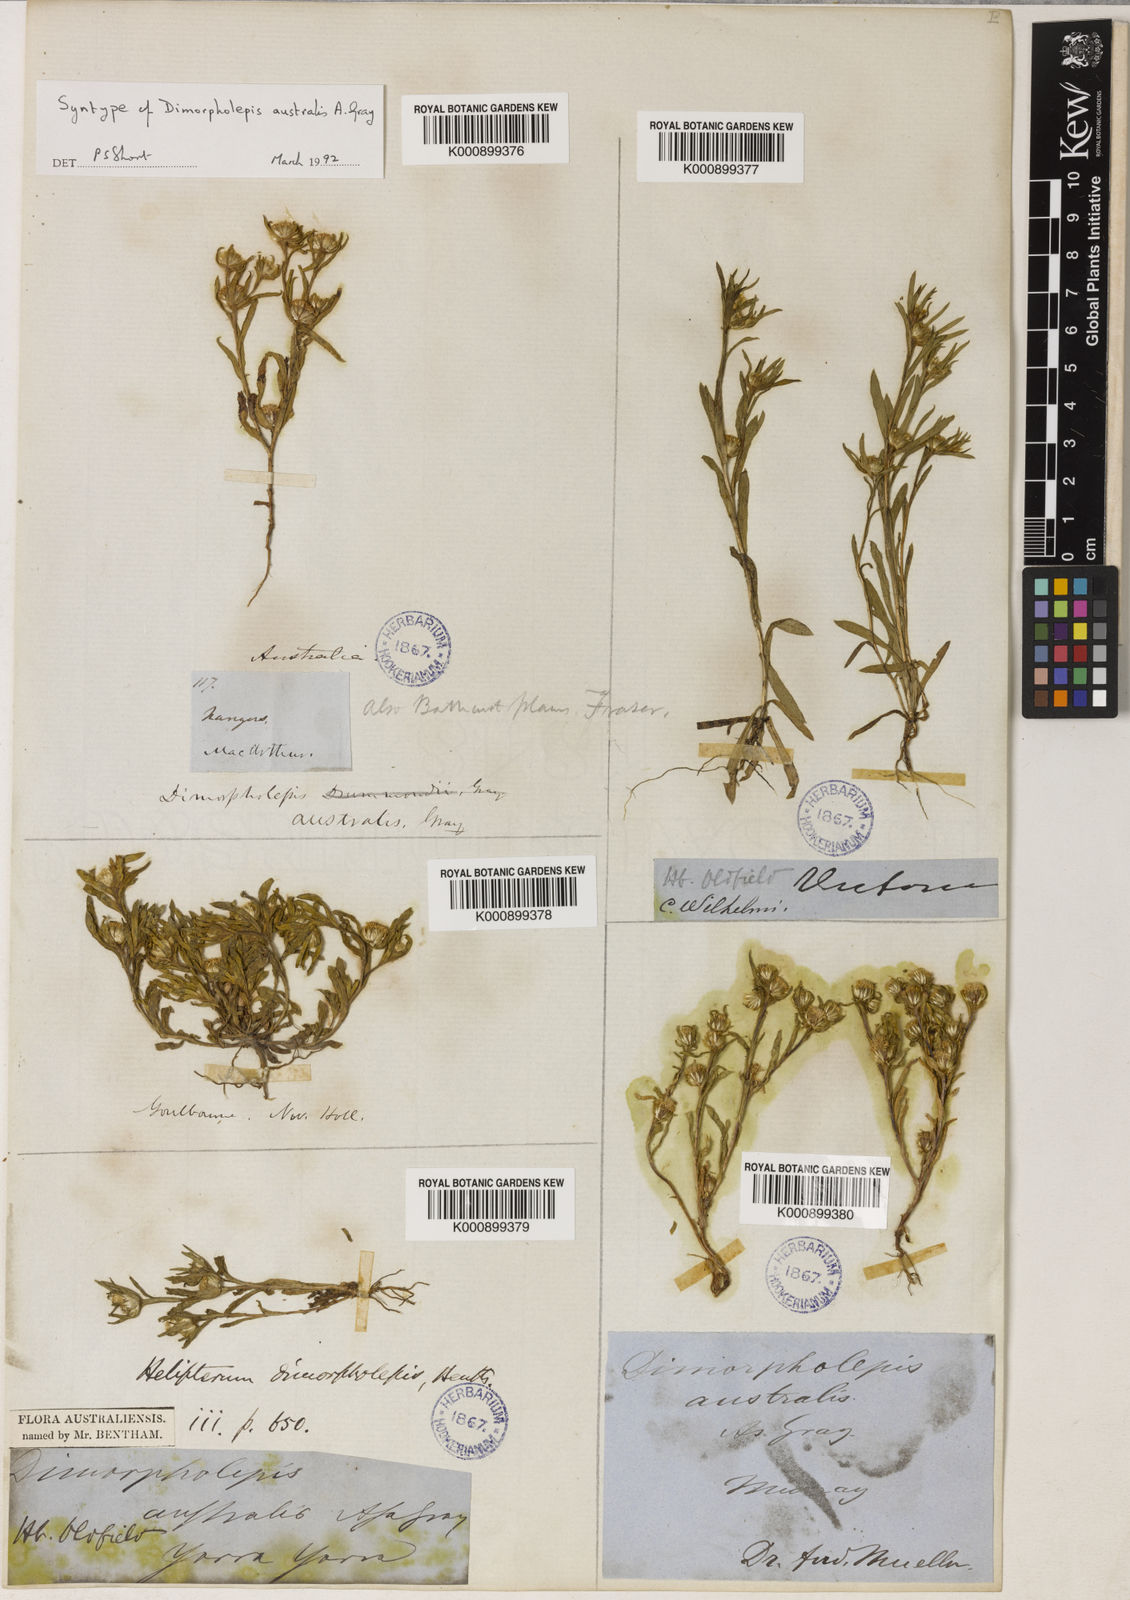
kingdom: Plantae
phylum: Tracheophyta
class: Magnoliopsida
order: Asterales
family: Asteraceae
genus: Triptilodiscus
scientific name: Triptilodiscus pygmaeus
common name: Common sunray
